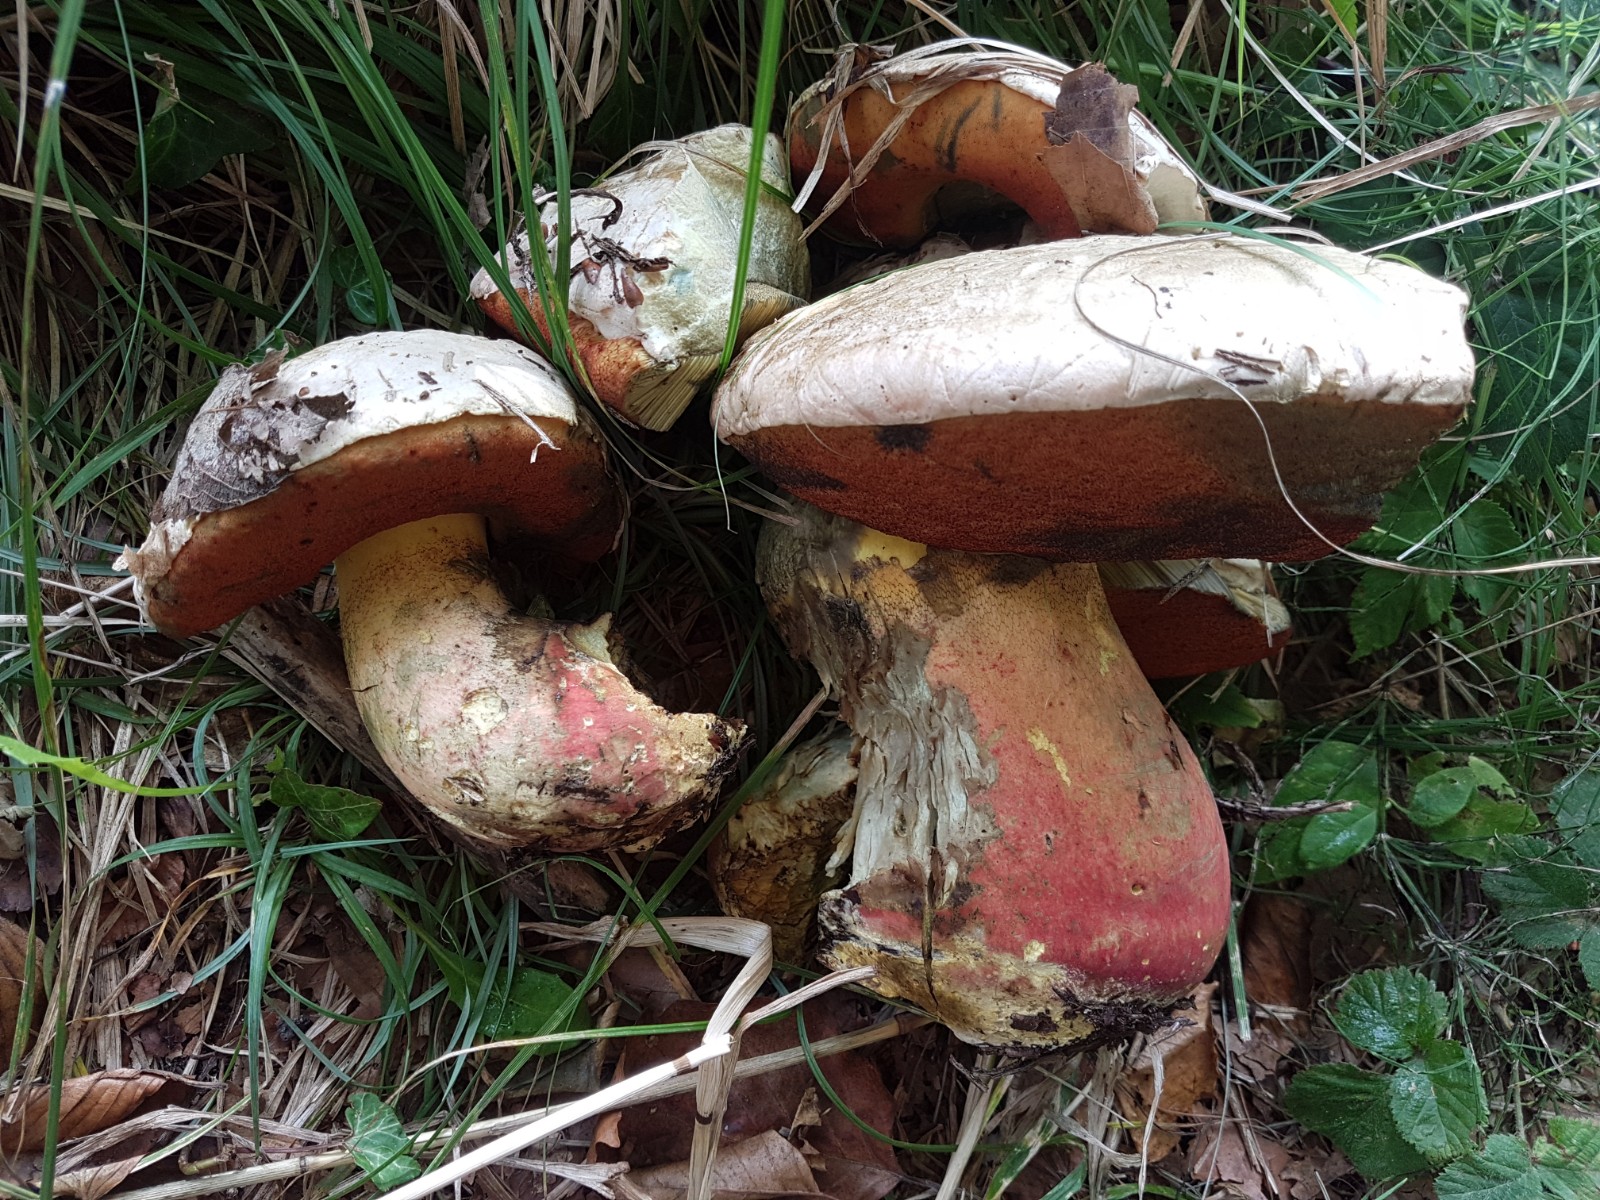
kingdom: Fungi
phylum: Basidiomycota
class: Agaricomycetes
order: Boletales
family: Boletaceae
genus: Rubroboletus
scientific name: Rubroboletus satanas
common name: Satans rørhat
